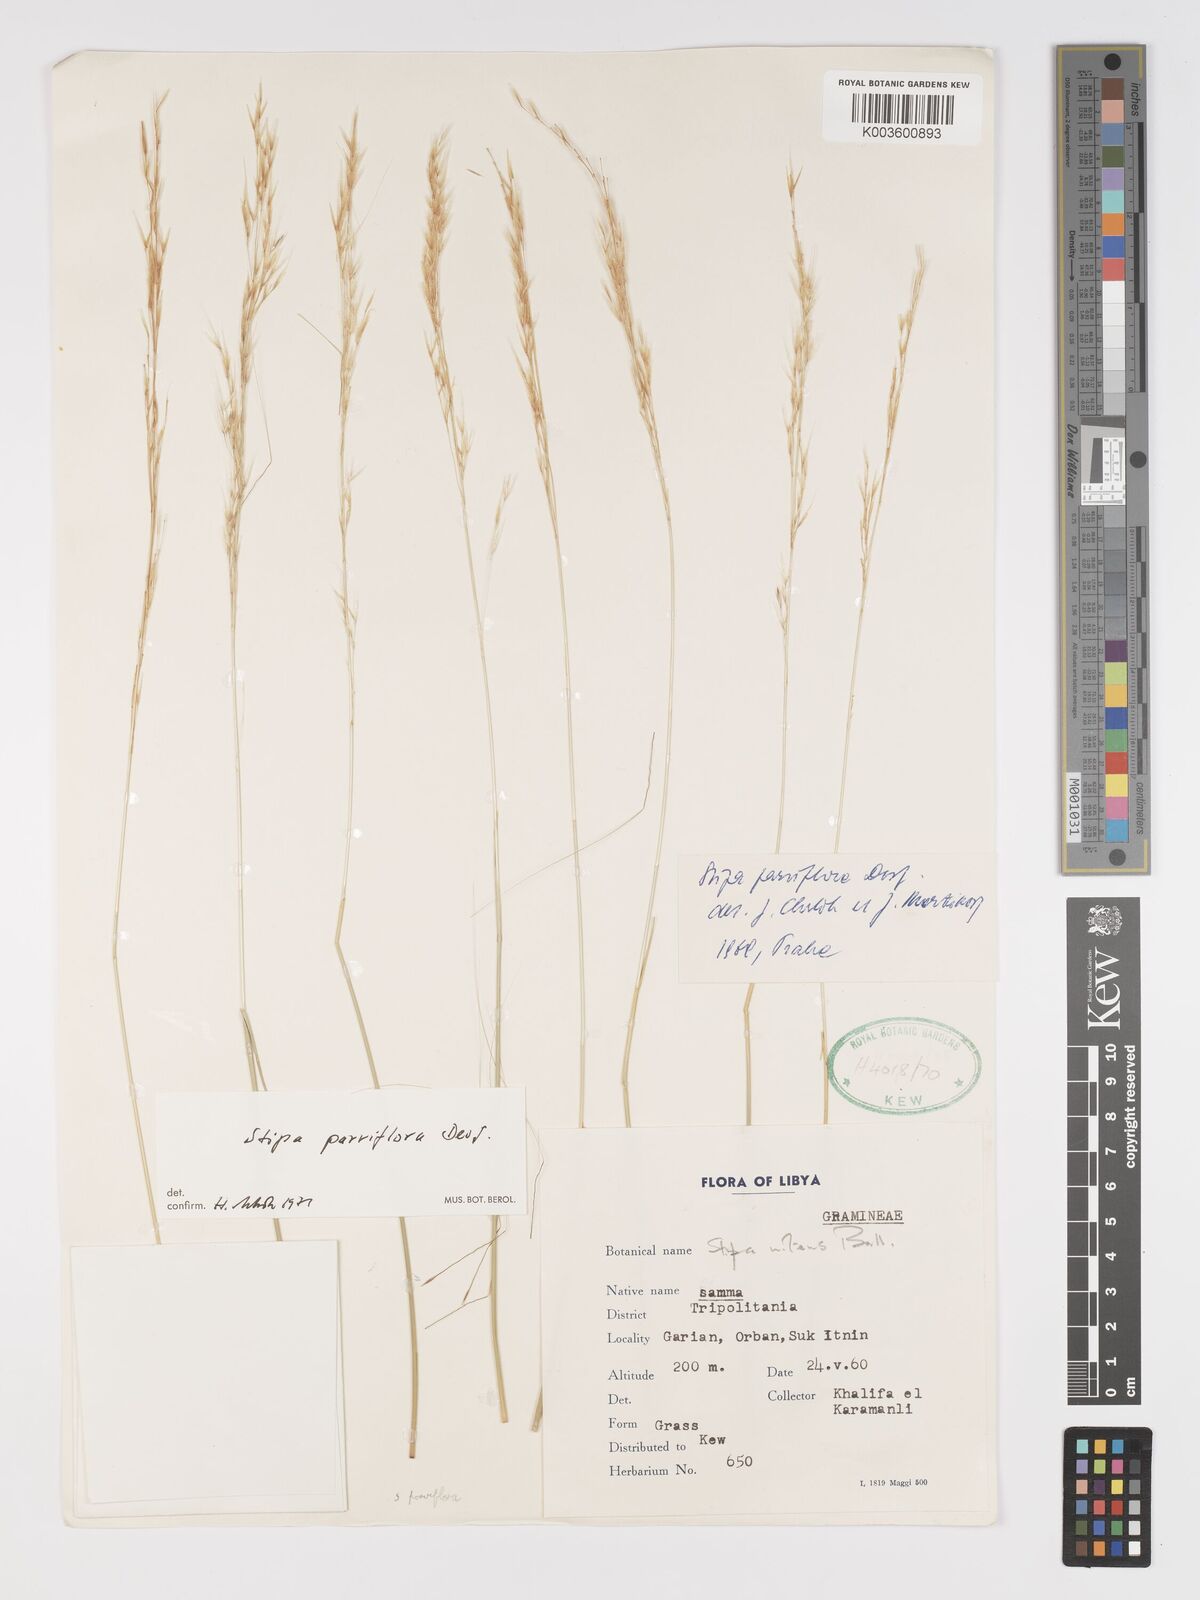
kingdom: Plantae
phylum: Tracheophyta
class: Liliopsida
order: Poales
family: Poaceae
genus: Achnatherum
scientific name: Achnatherum parviflorum
